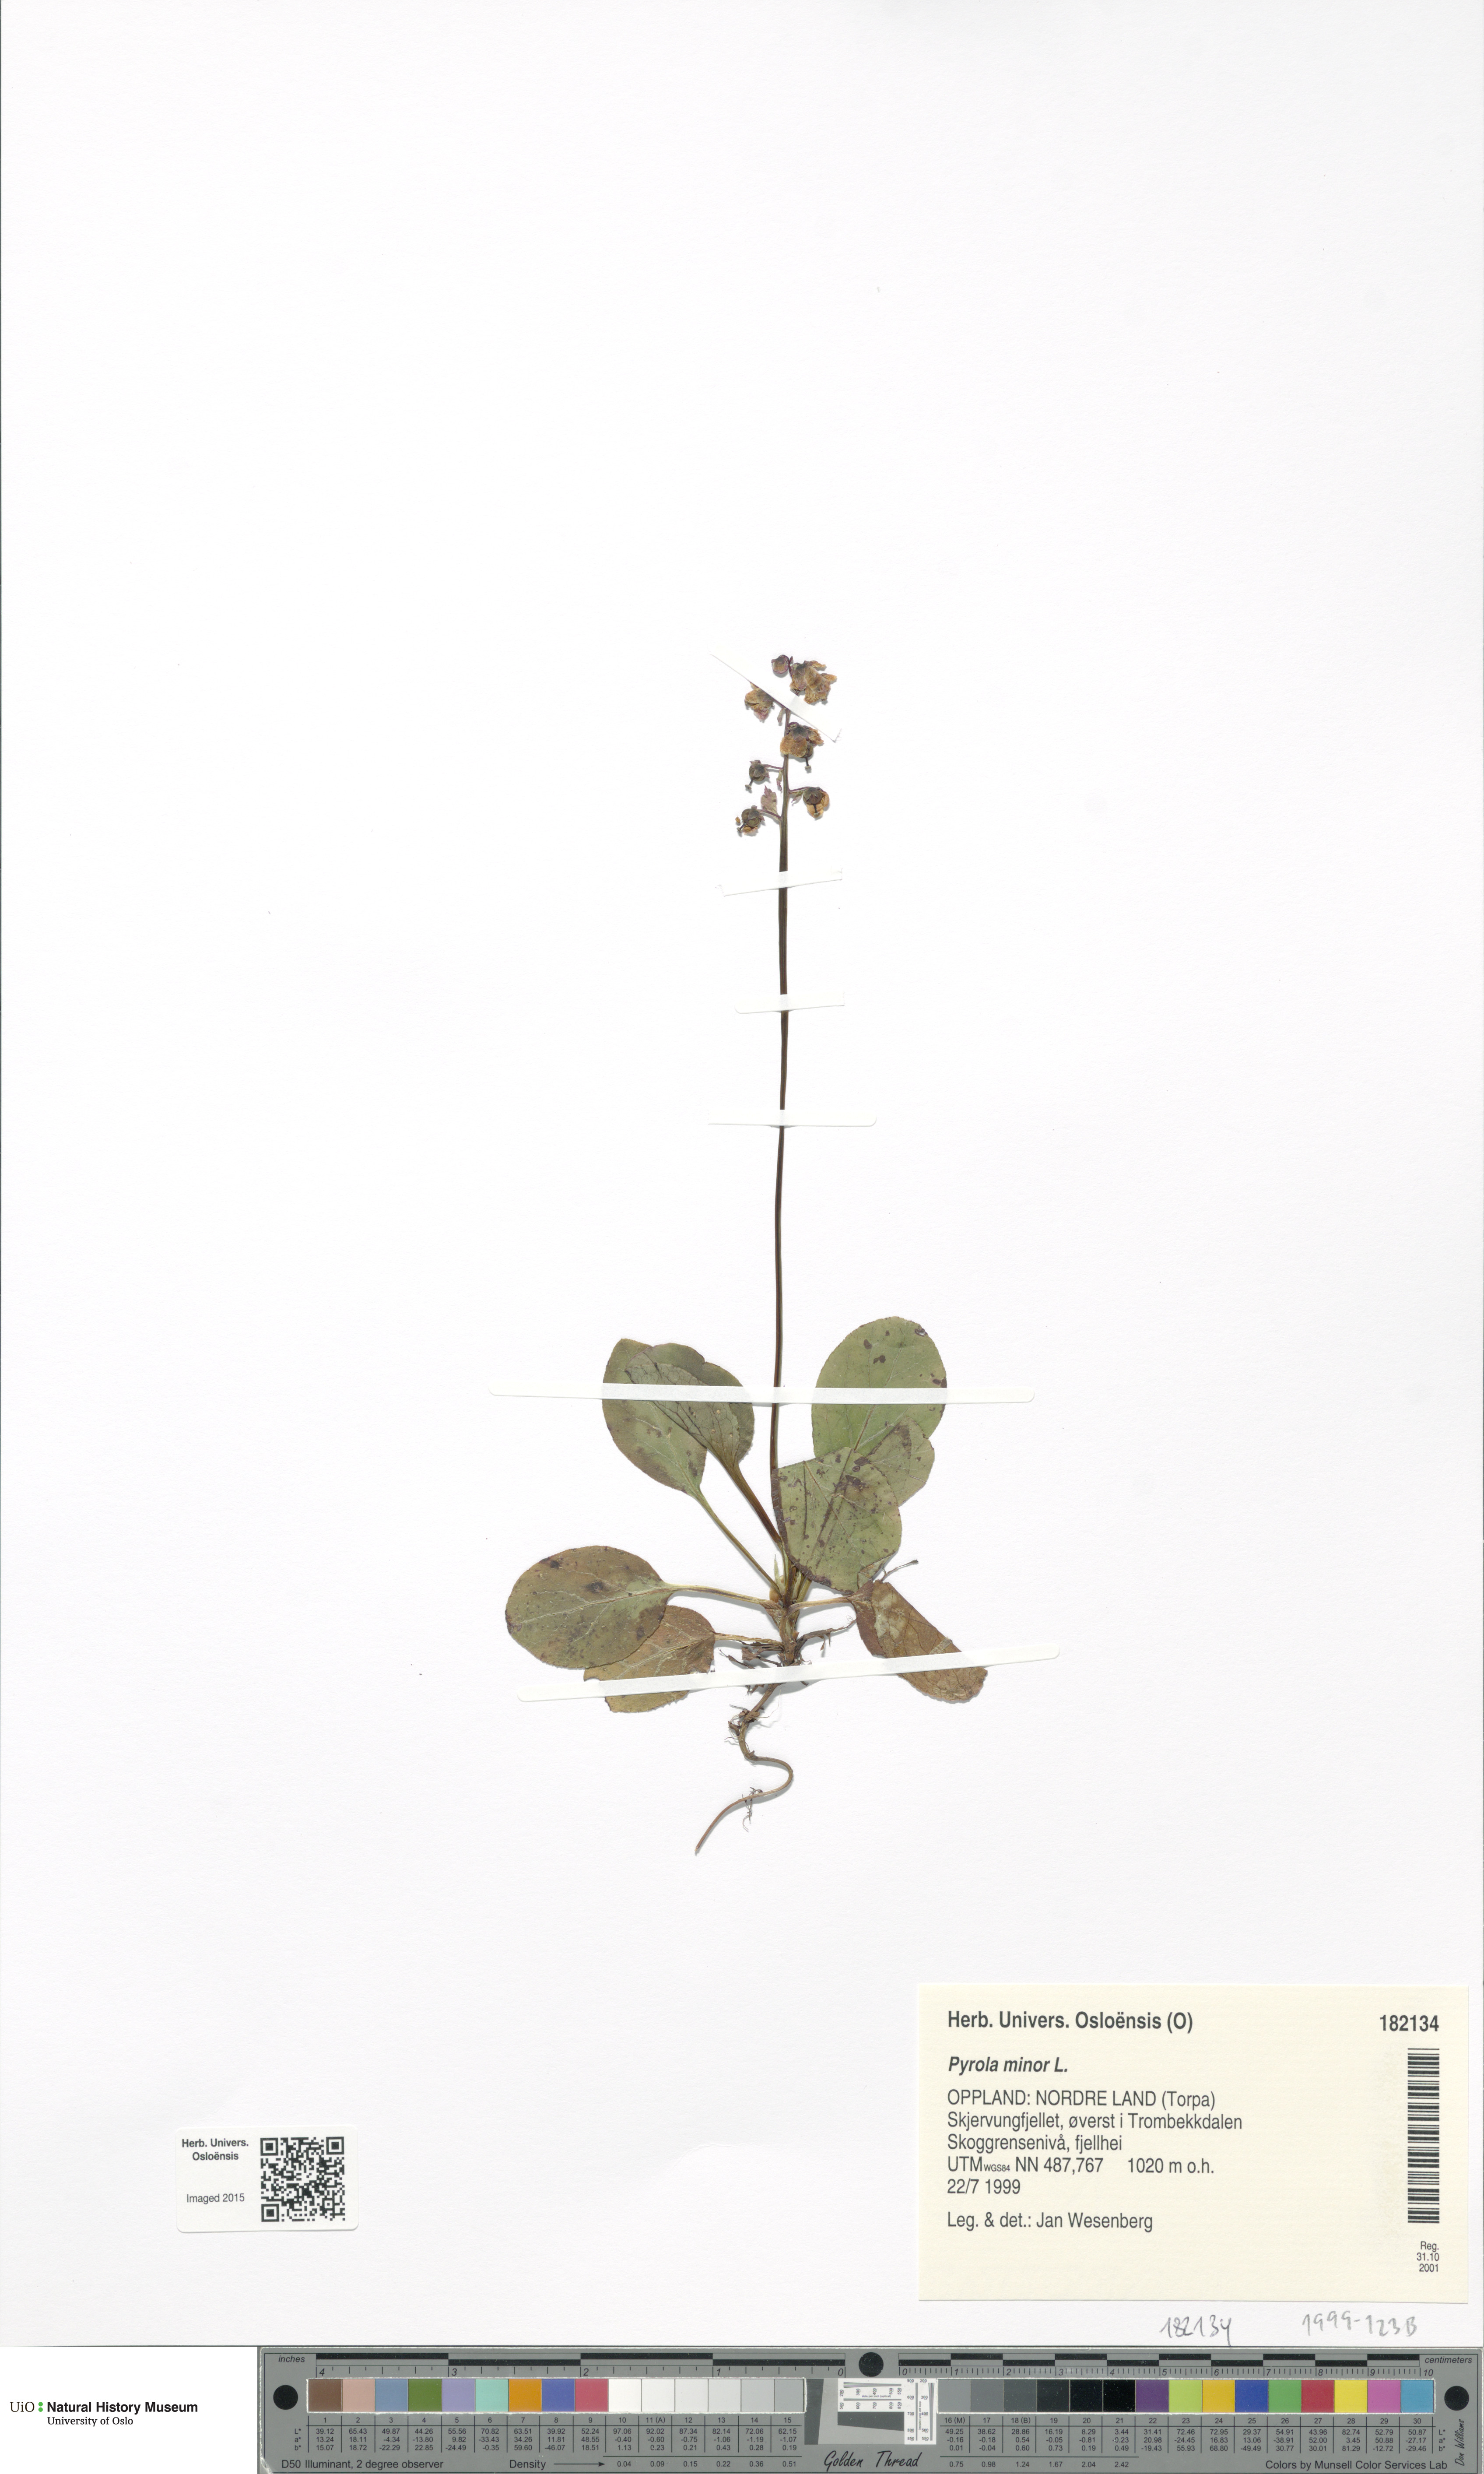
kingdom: Plantae
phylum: Tracheophyta
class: Magnoliopsida
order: Ericales
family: Ericaceae
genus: Pyrola
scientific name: Pyrola minor
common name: Common wintergreen
